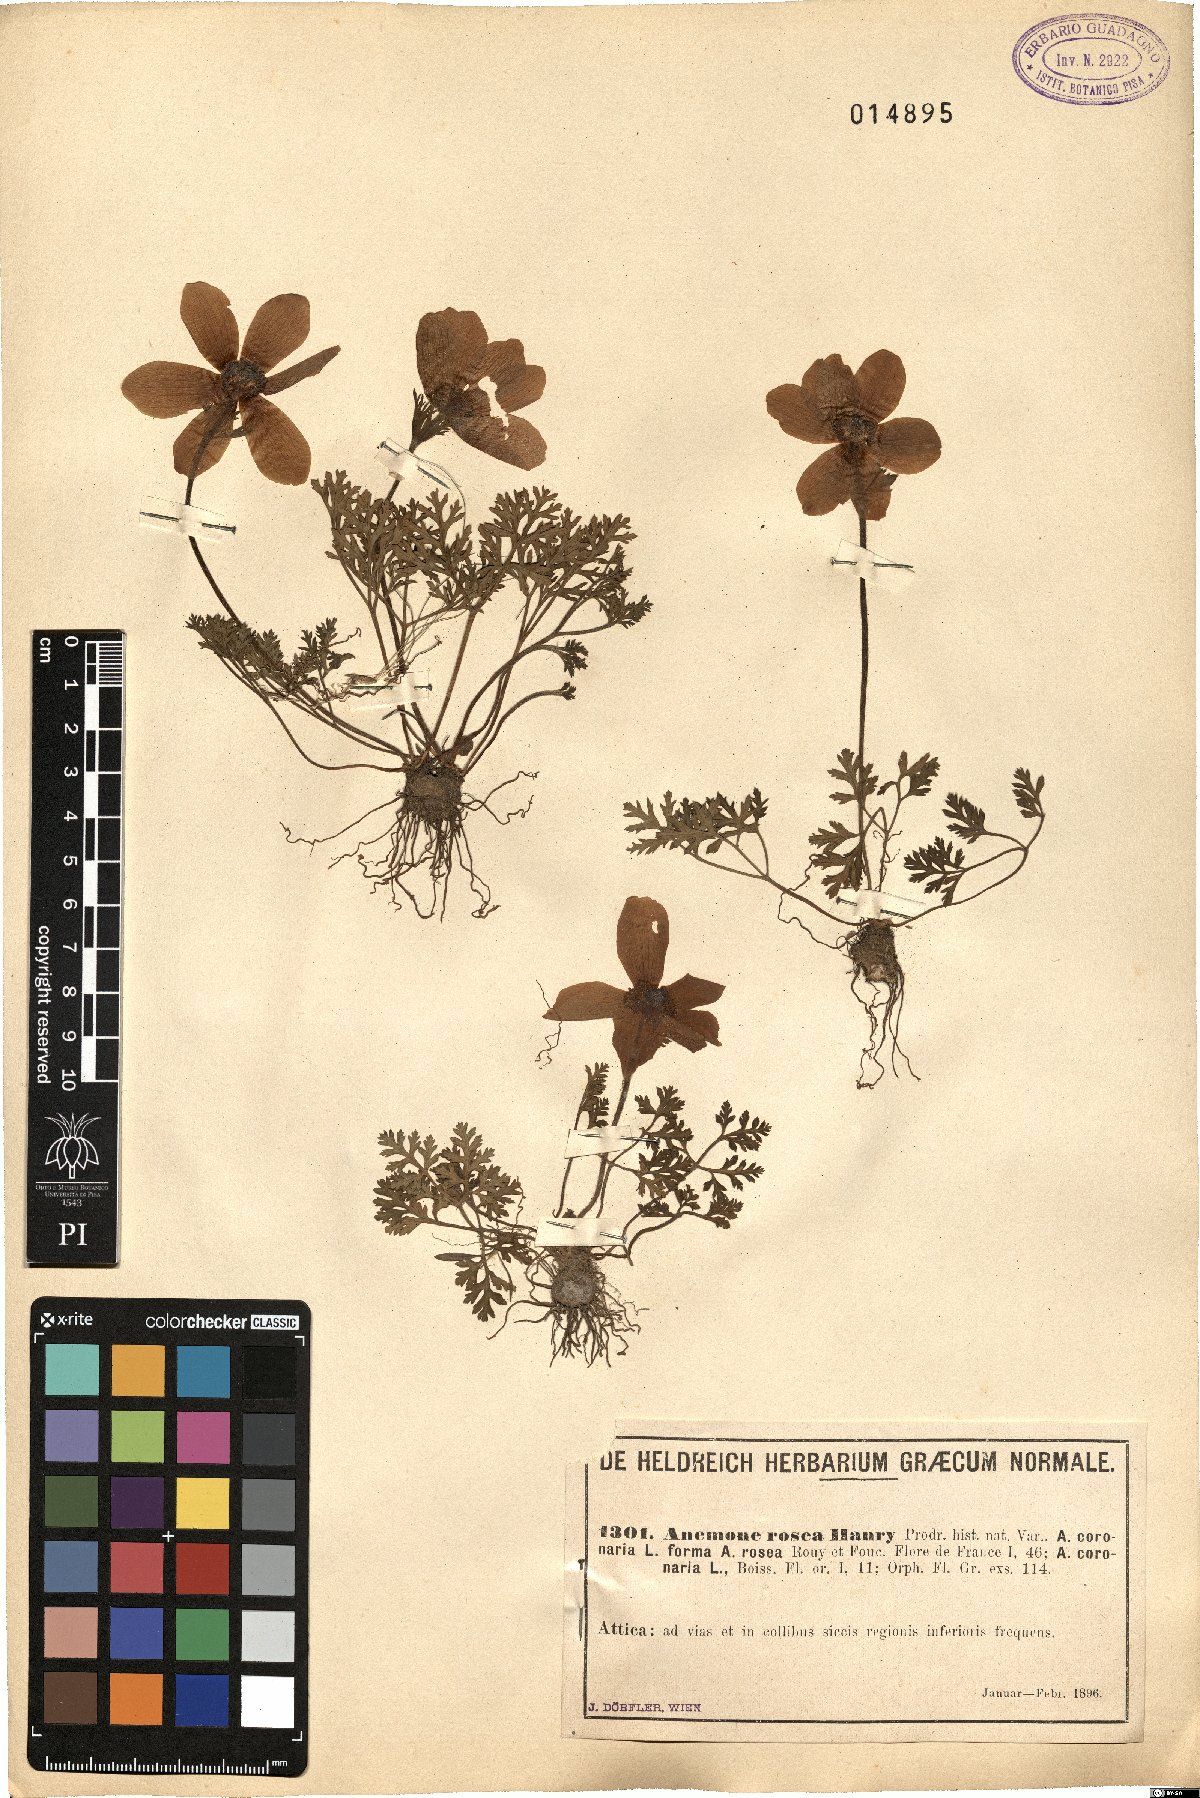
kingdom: Plantae
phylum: Tracheophyta
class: Magnoliopsida
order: Ranunculales
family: Ranunculaceae
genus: Anemone
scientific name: Anemone coronaria
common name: Poppy anemone
